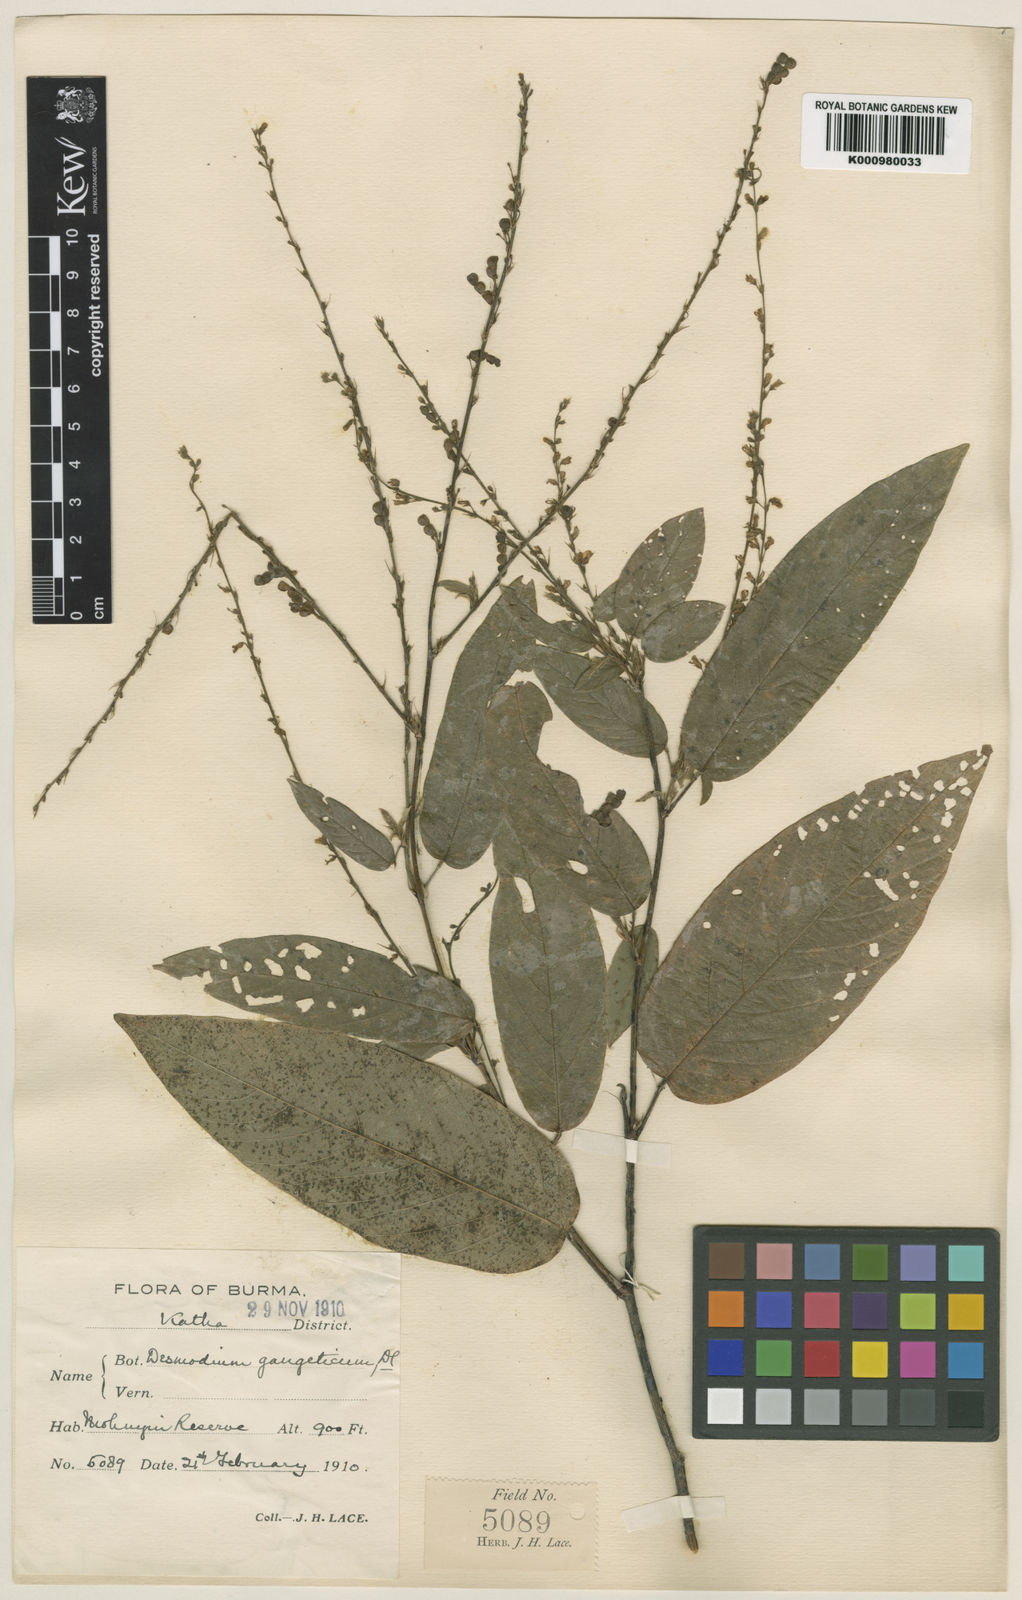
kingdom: Plantae
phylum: Tracheophyta
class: Magnoliopsida
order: Fabales
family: Fabaceae
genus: Pleurolobus
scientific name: Pleurolobus gangeticus
